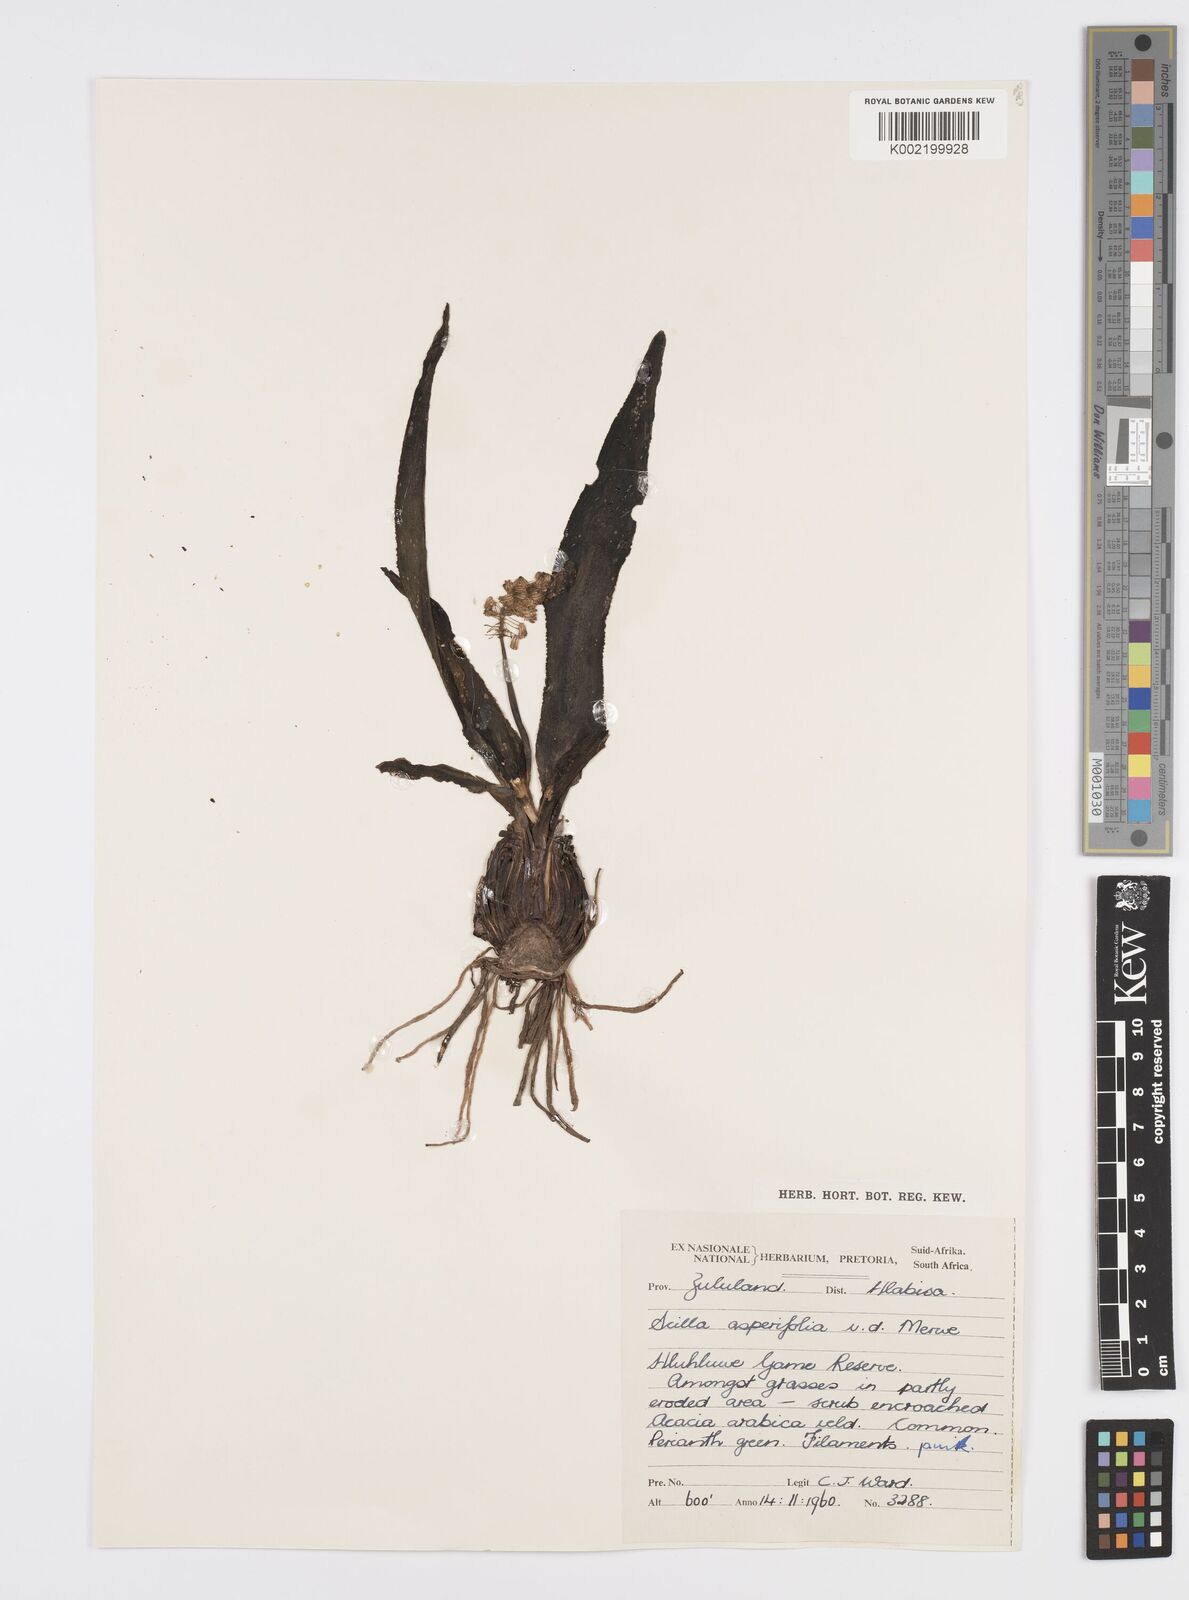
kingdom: Plantae
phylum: Tracheophyta
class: Liliopsida
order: Asparagales
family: Asparagaceae
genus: Ledebouria
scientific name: Ledebouria revoluta
